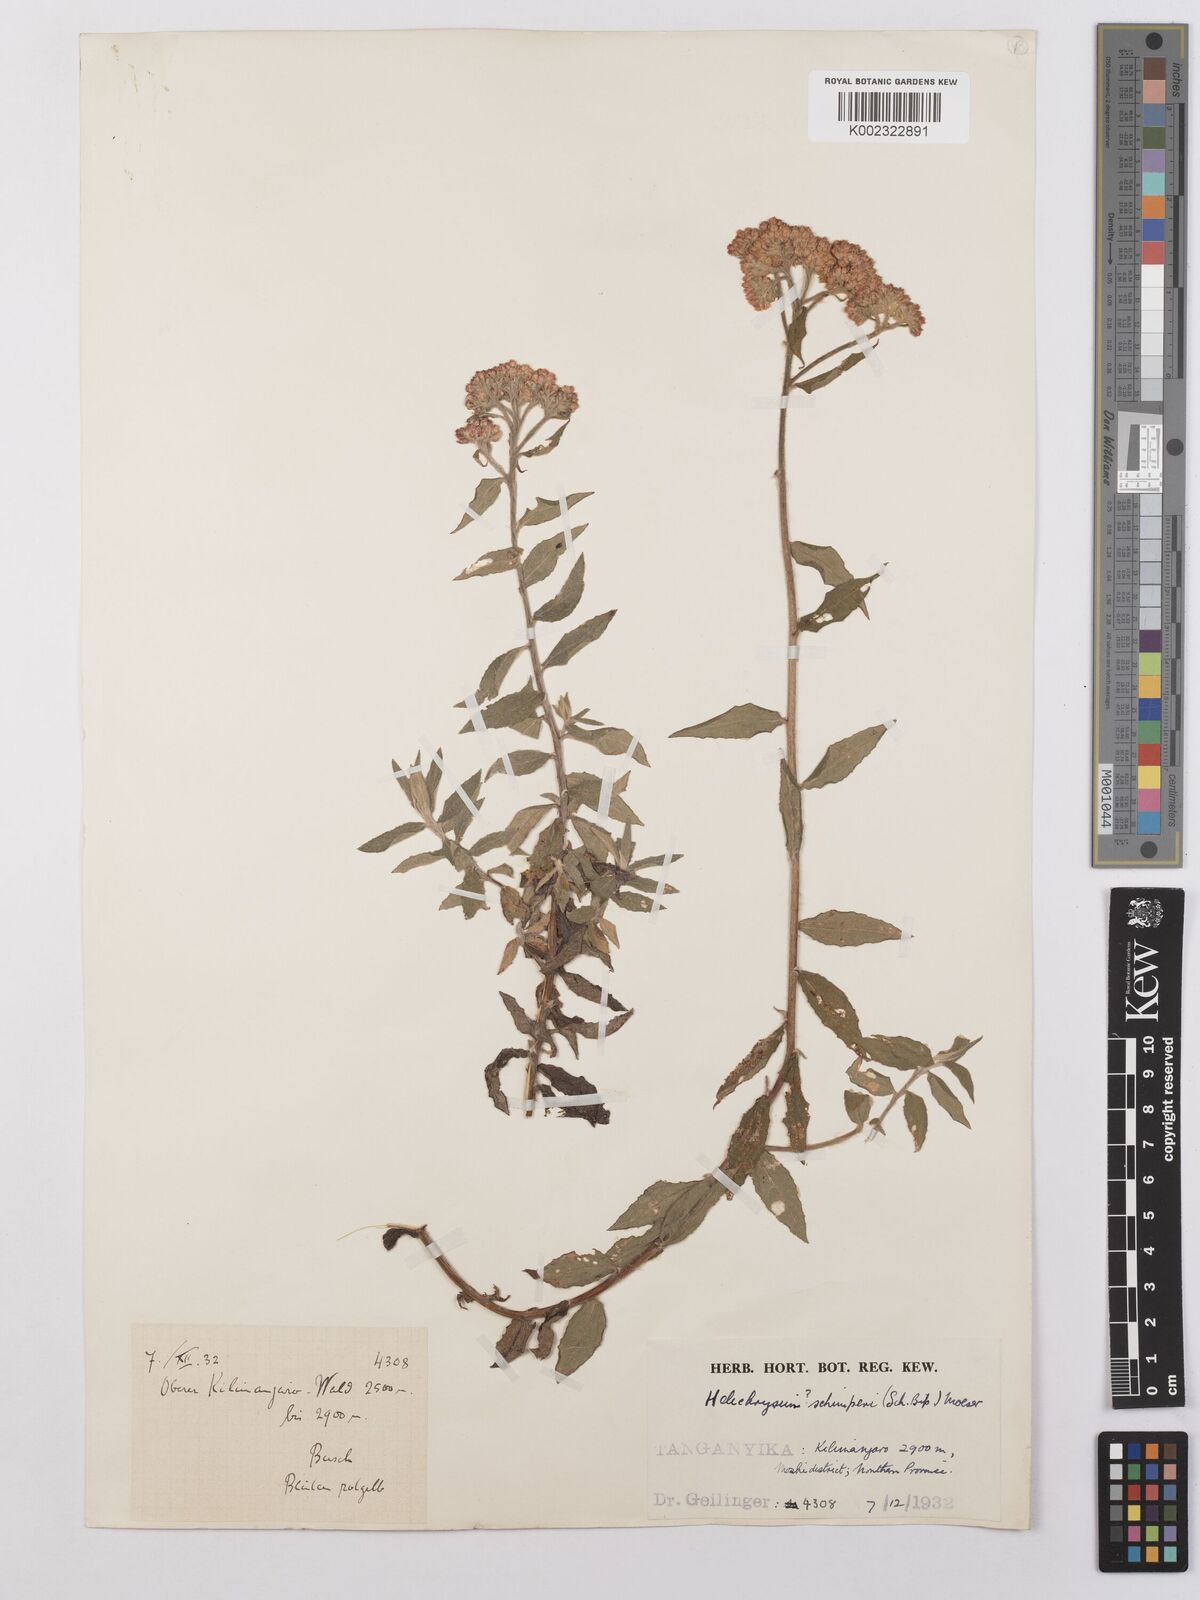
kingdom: Plantae
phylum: Tracheophyta
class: Magnoliopsida
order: Asterales
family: Asteraceae
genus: Helichrysum
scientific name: Helichrysum schimperi
